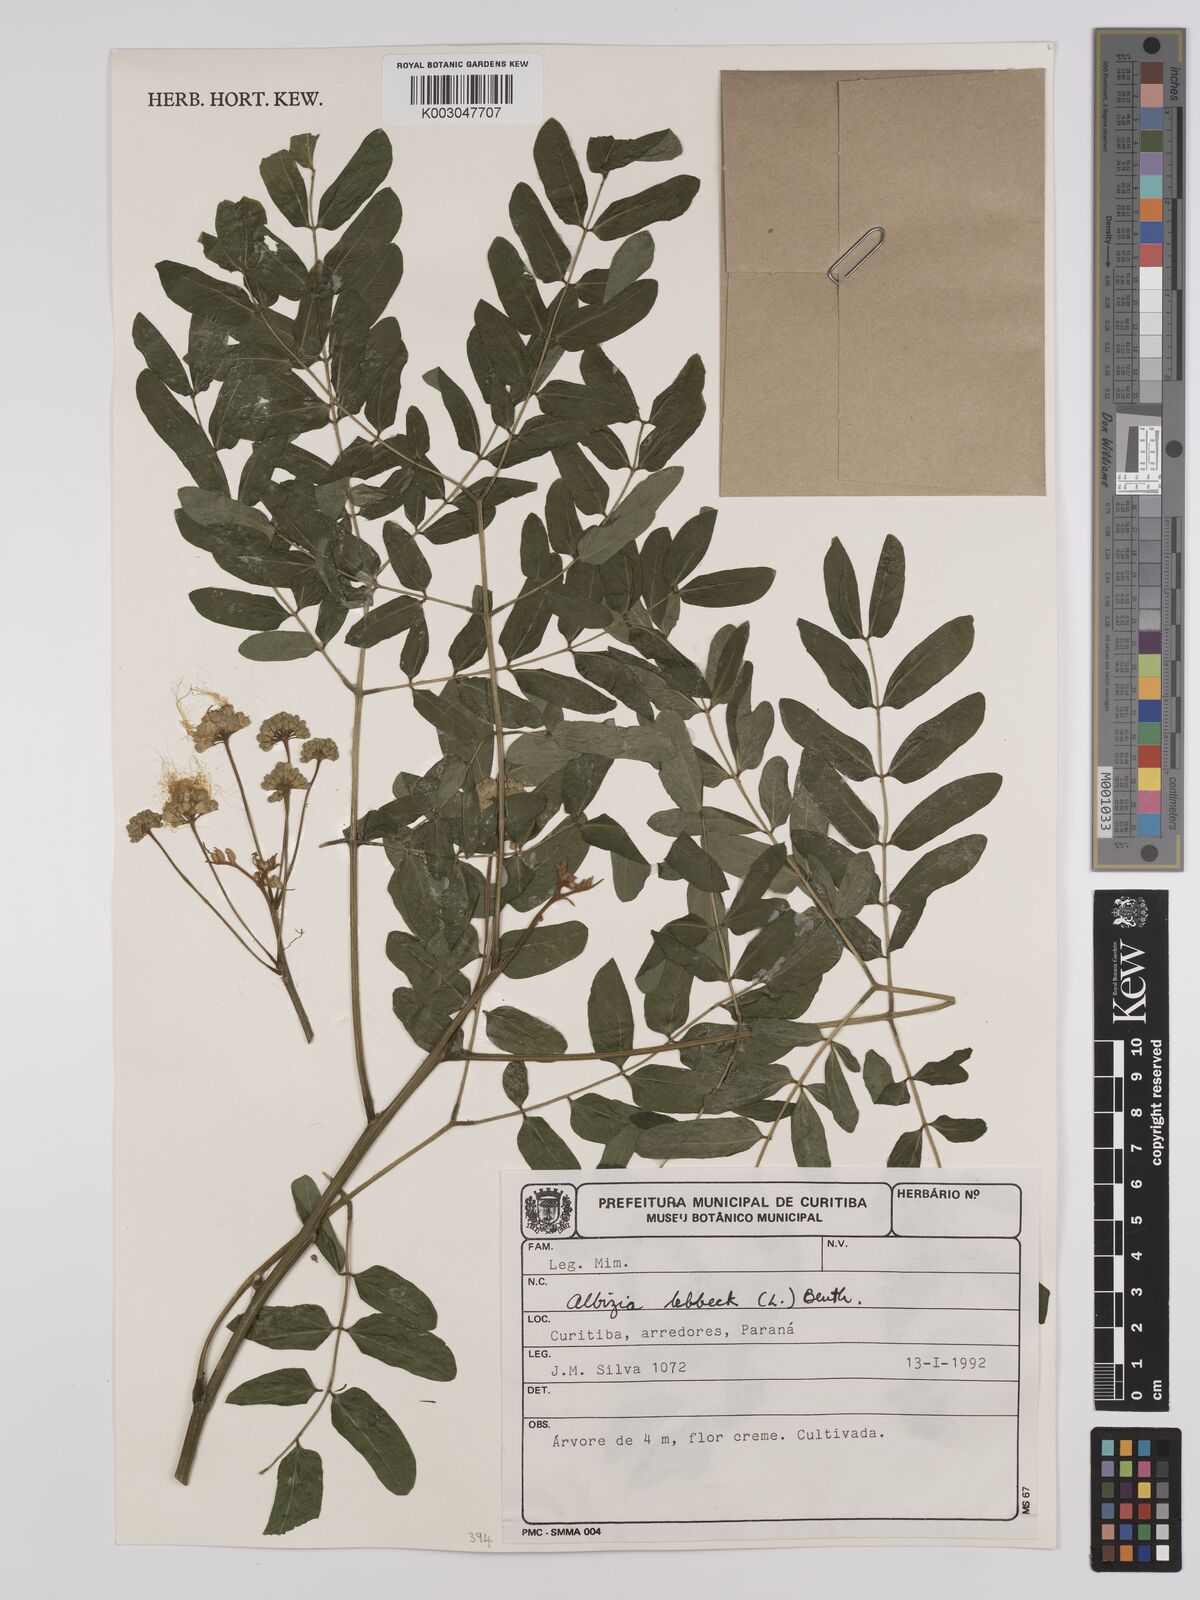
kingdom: Plantae
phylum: Tracheophyta
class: Magnoliopsida
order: Fabales
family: Fabaceae
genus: Albizia
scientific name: Albizia lebbeck
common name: Woman's tongue
